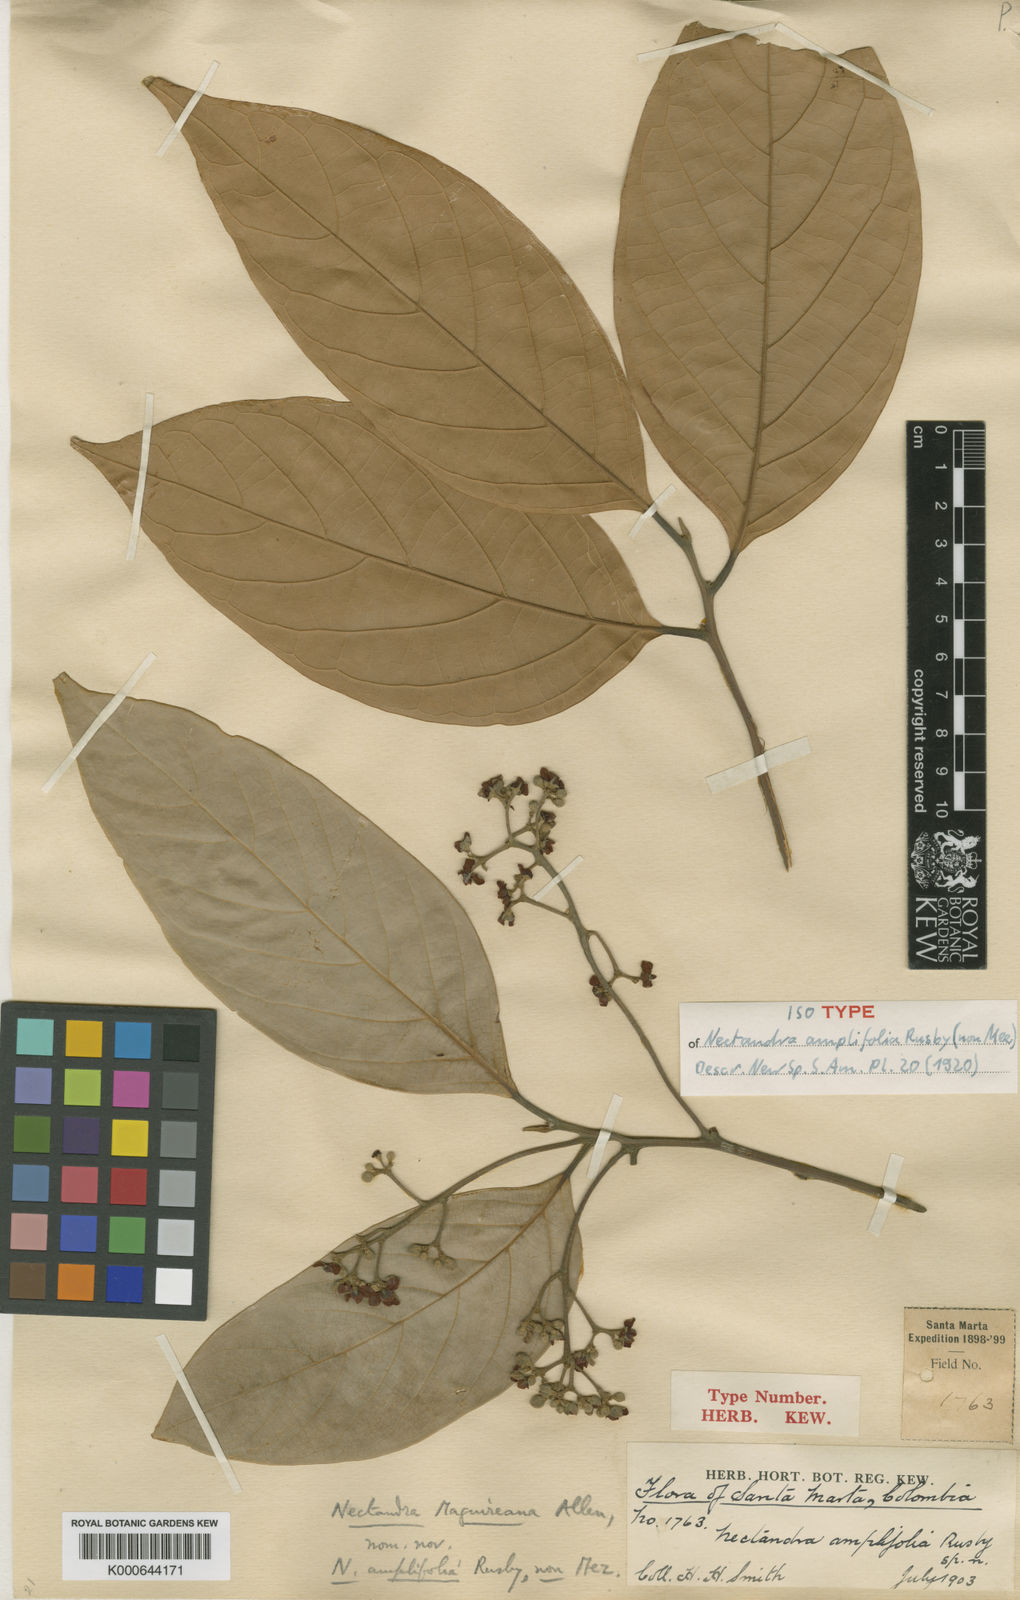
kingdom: Plantae
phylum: Tracheophyta
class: Magnoliopsida
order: Laurales
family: Lauraceae
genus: Nectandra
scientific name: Nectandra maguireana
